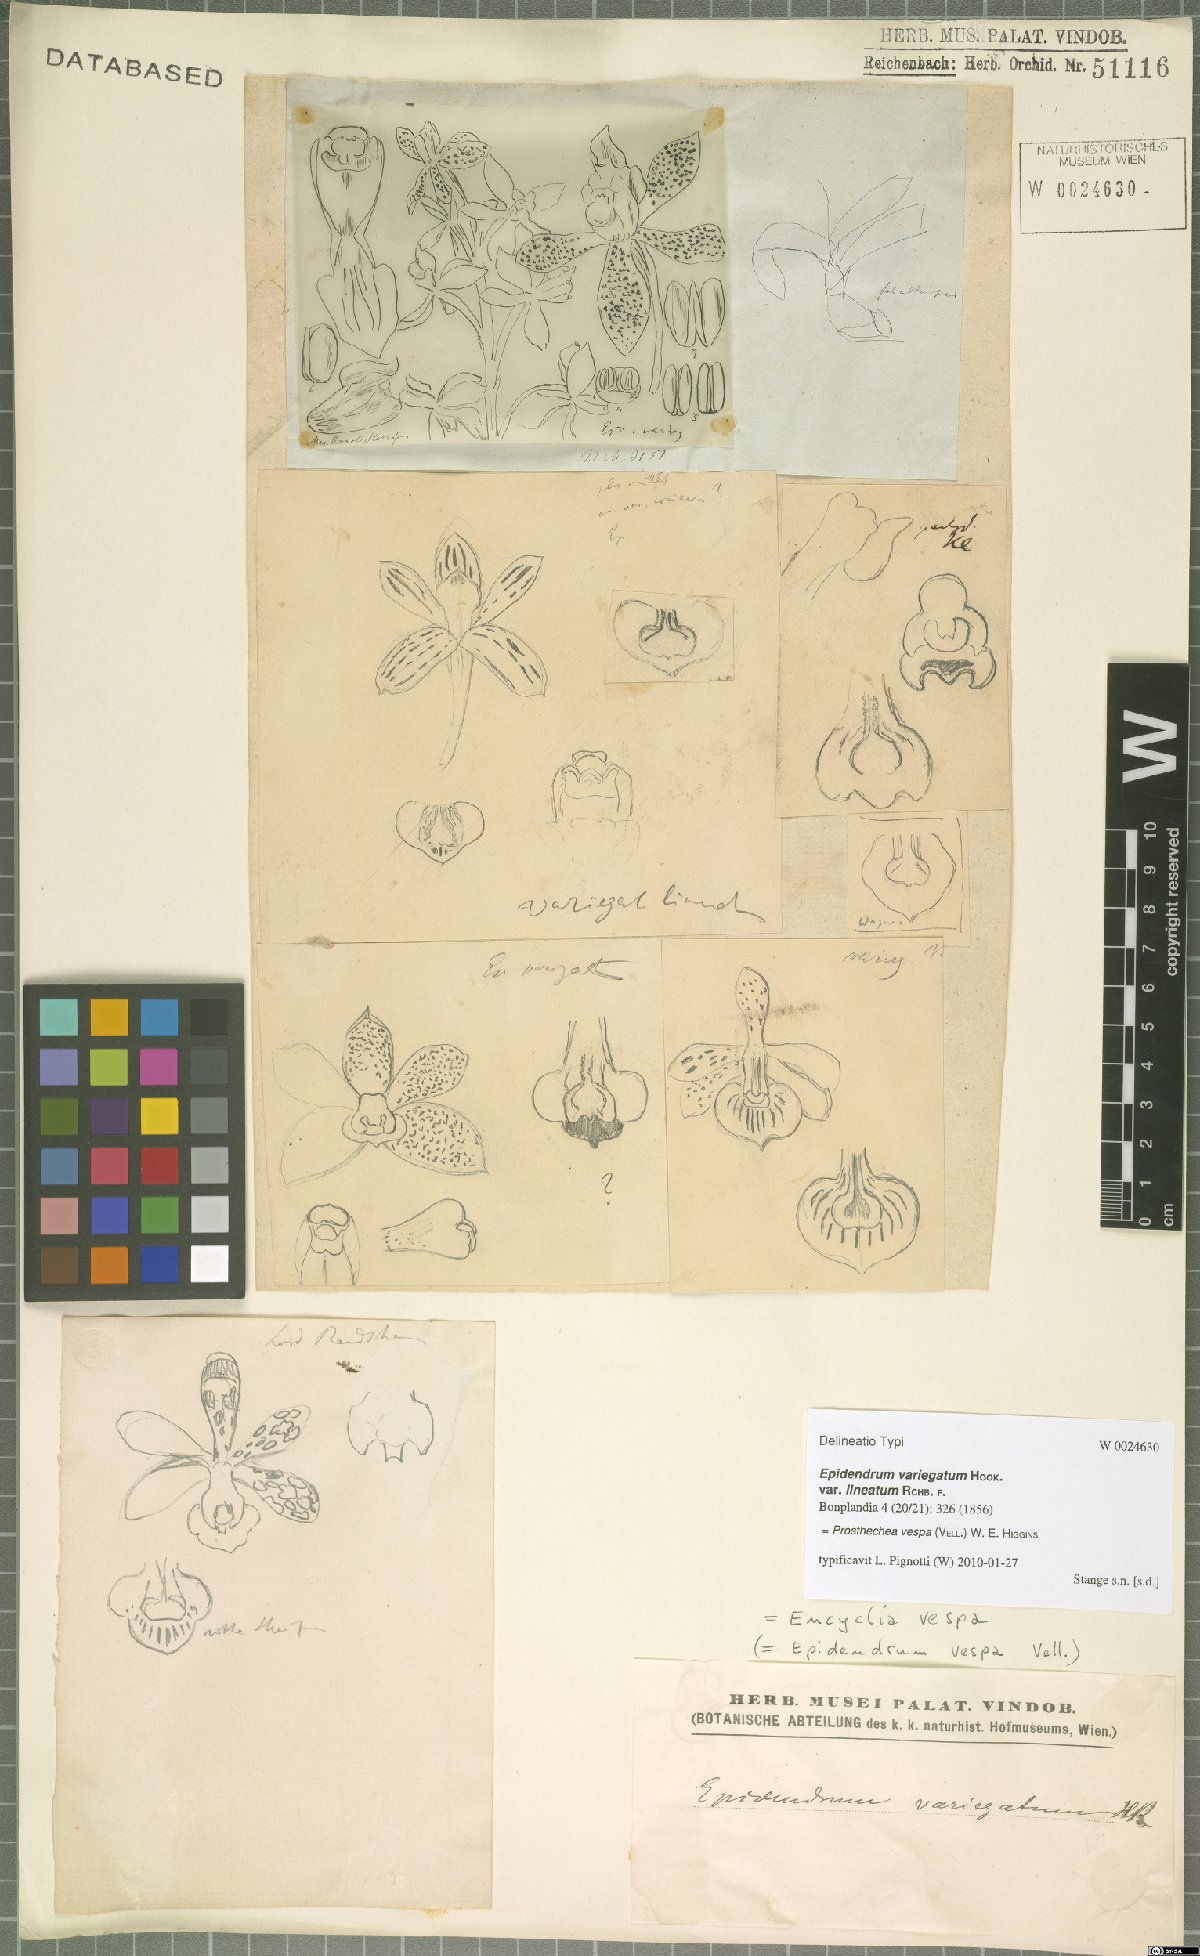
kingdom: Plantae
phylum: Tracheophyta
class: Liliopsida
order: Asparagales
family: Orchidaceae
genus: Prosthechea
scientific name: Prosthechea vespa
